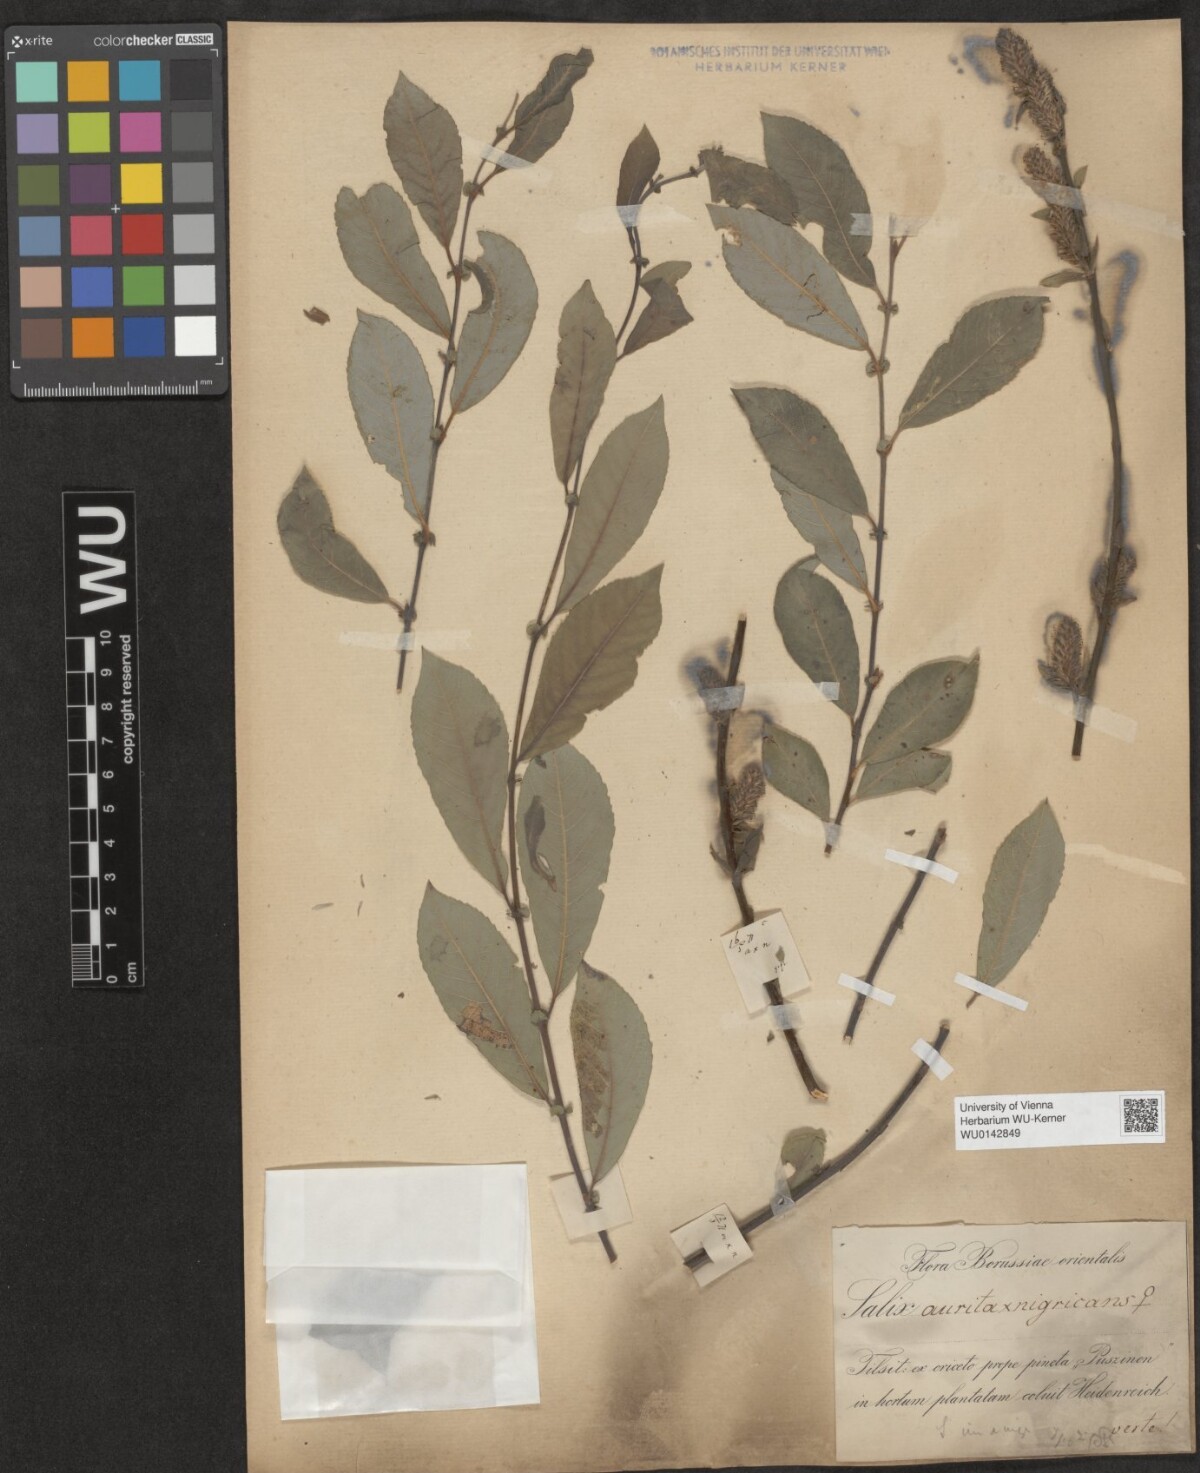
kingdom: Plantae
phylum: Tracheophyta
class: Magnoliopsida
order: Malpighiales
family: Salicaceae
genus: Salix
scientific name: Salix myrsinifolia
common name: Dark-leaved willow
